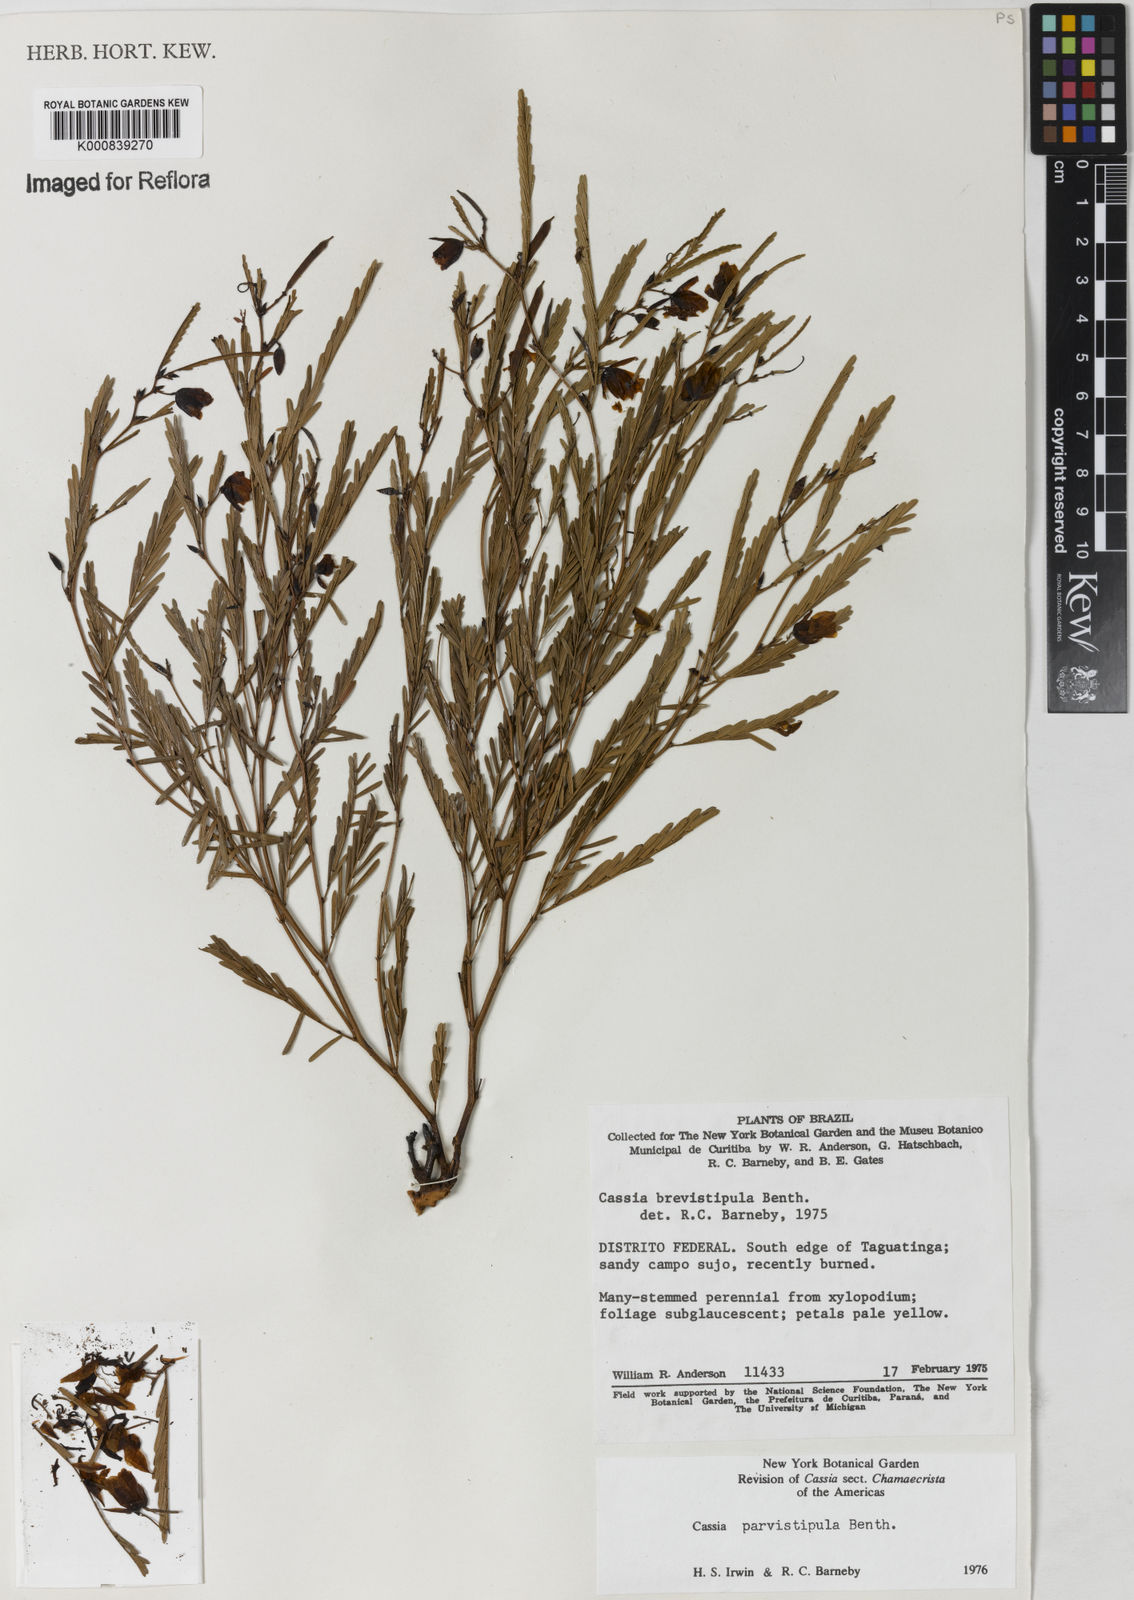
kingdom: Plantae
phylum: Tracheophyta
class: Magnoliopsida
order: Fabales
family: Fabaceae
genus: Chamaecrista
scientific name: Chamaecrista parvistipula
